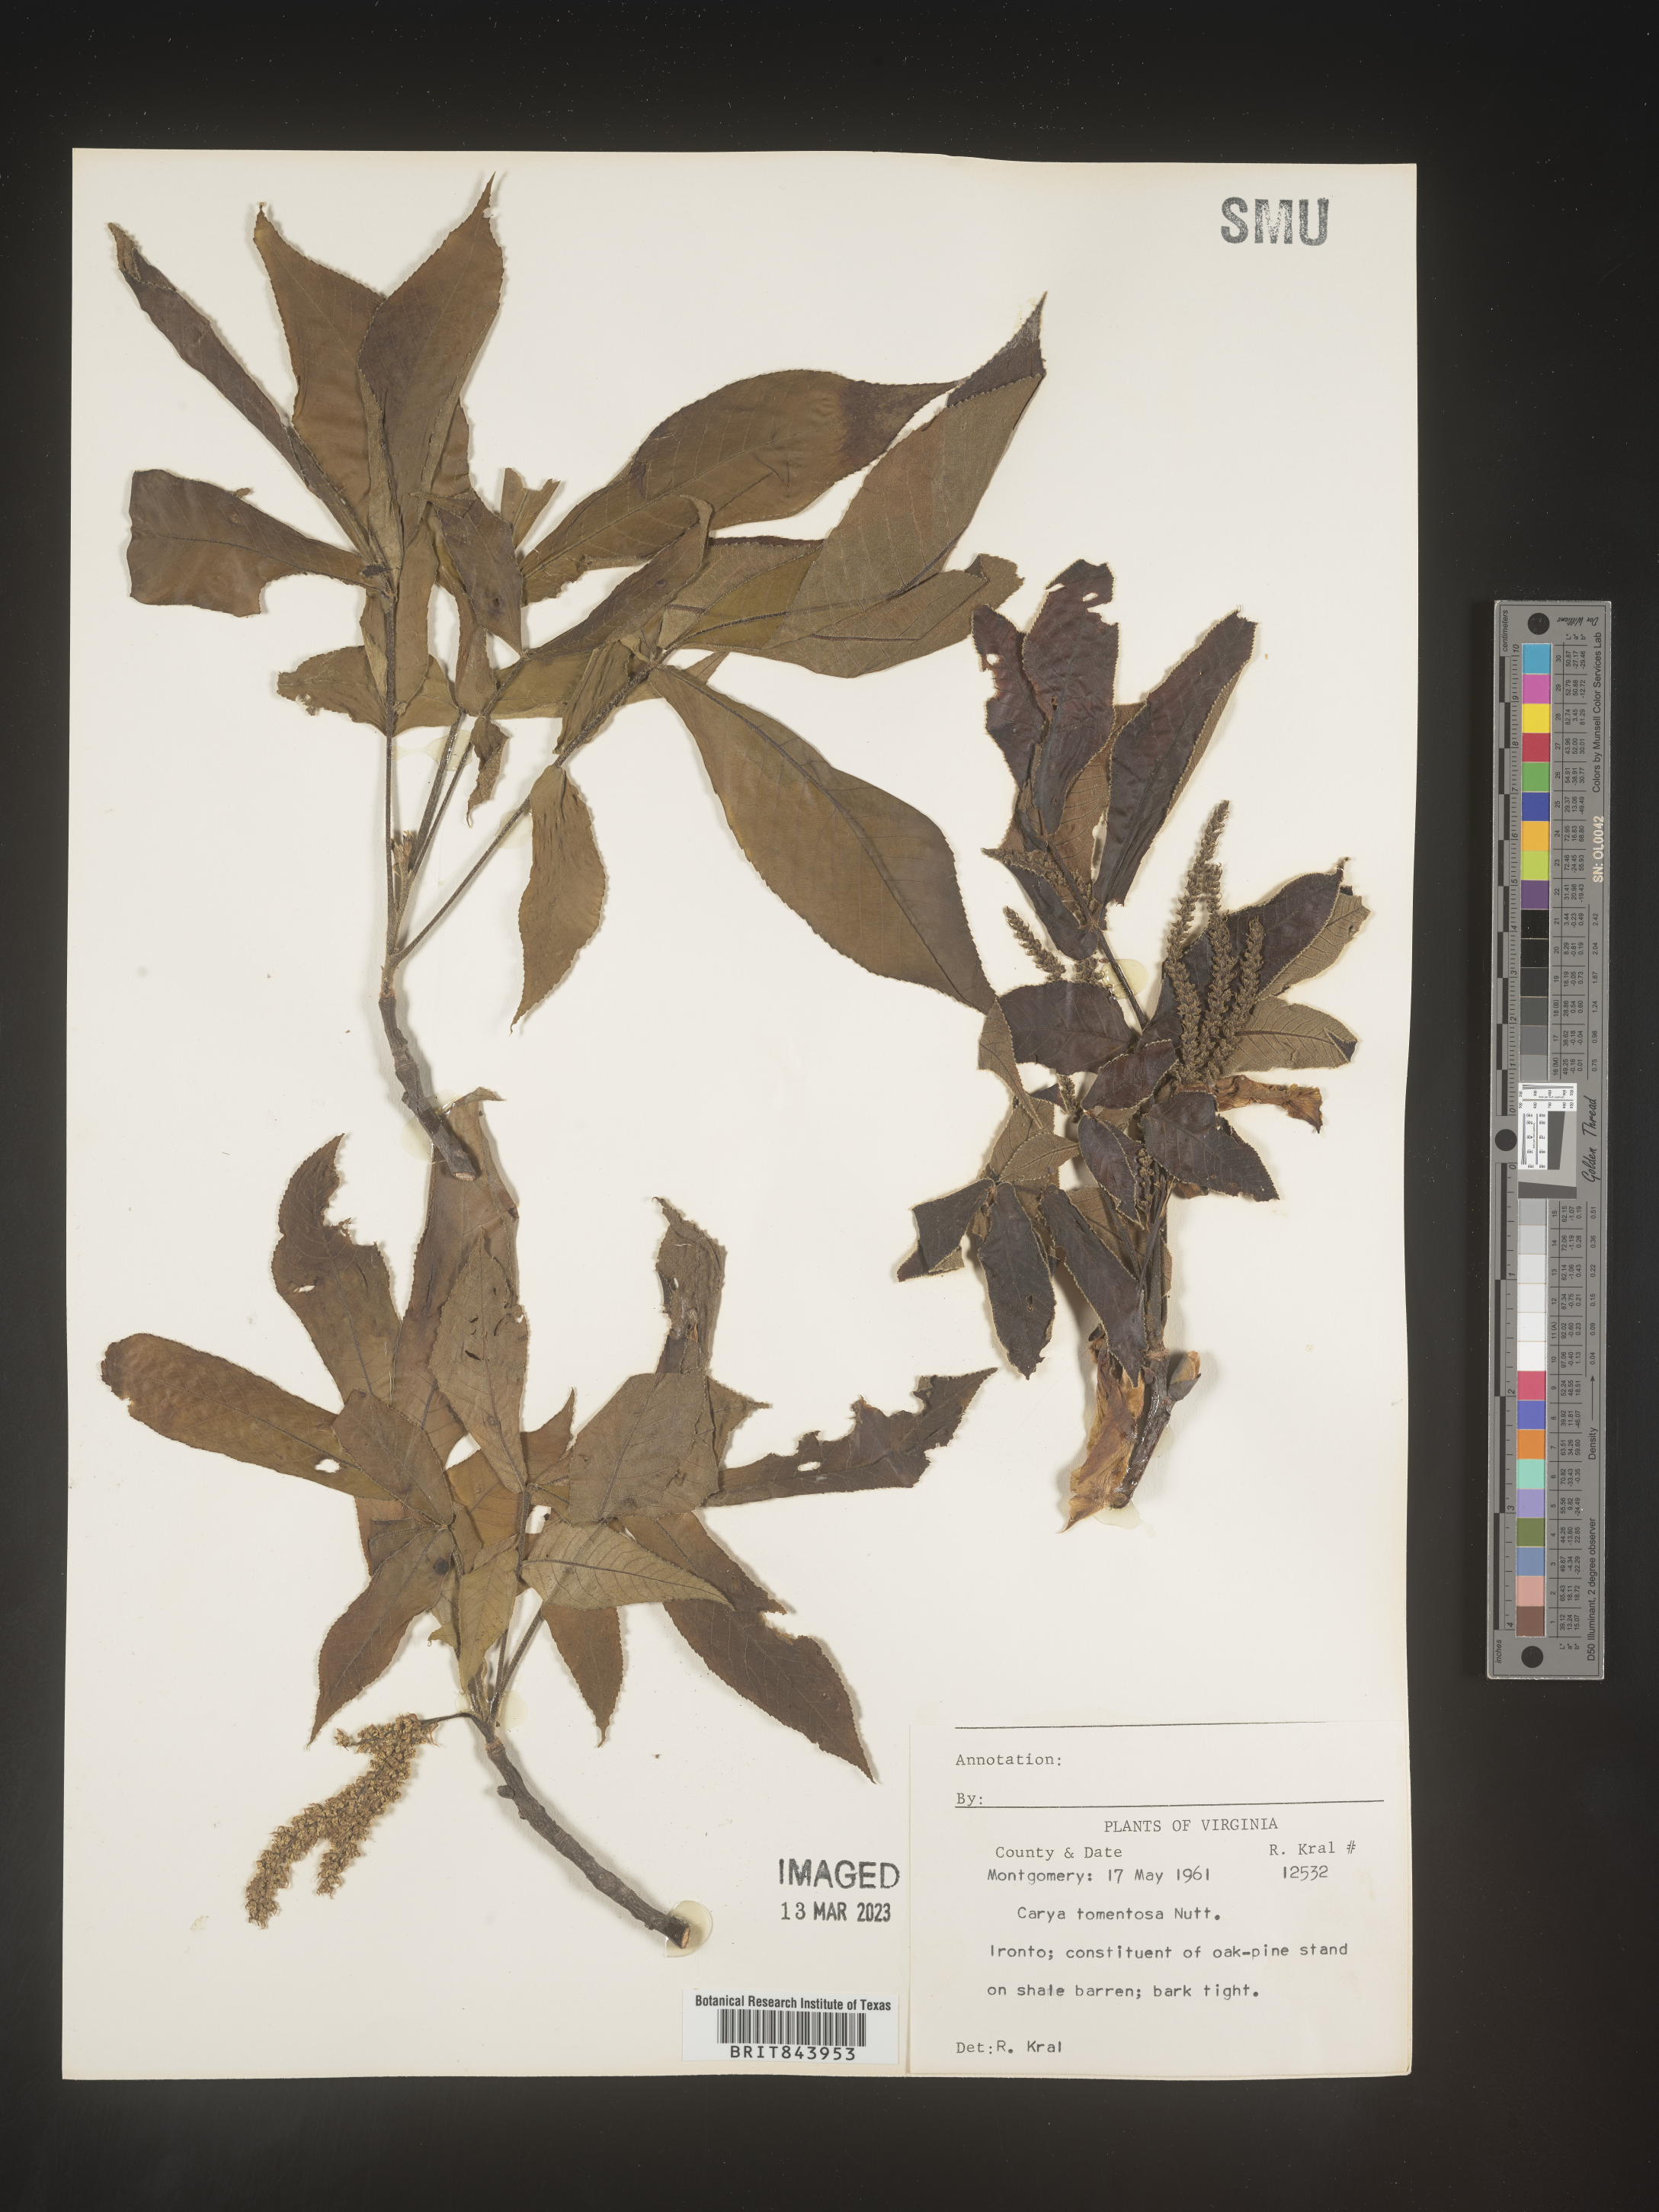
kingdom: Plantae
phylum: Tracheophyta
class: Magnoliopsida
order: Fagales
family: Juglandaceae
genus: Carya
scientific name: Carya alba
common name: Mockernut hickory
